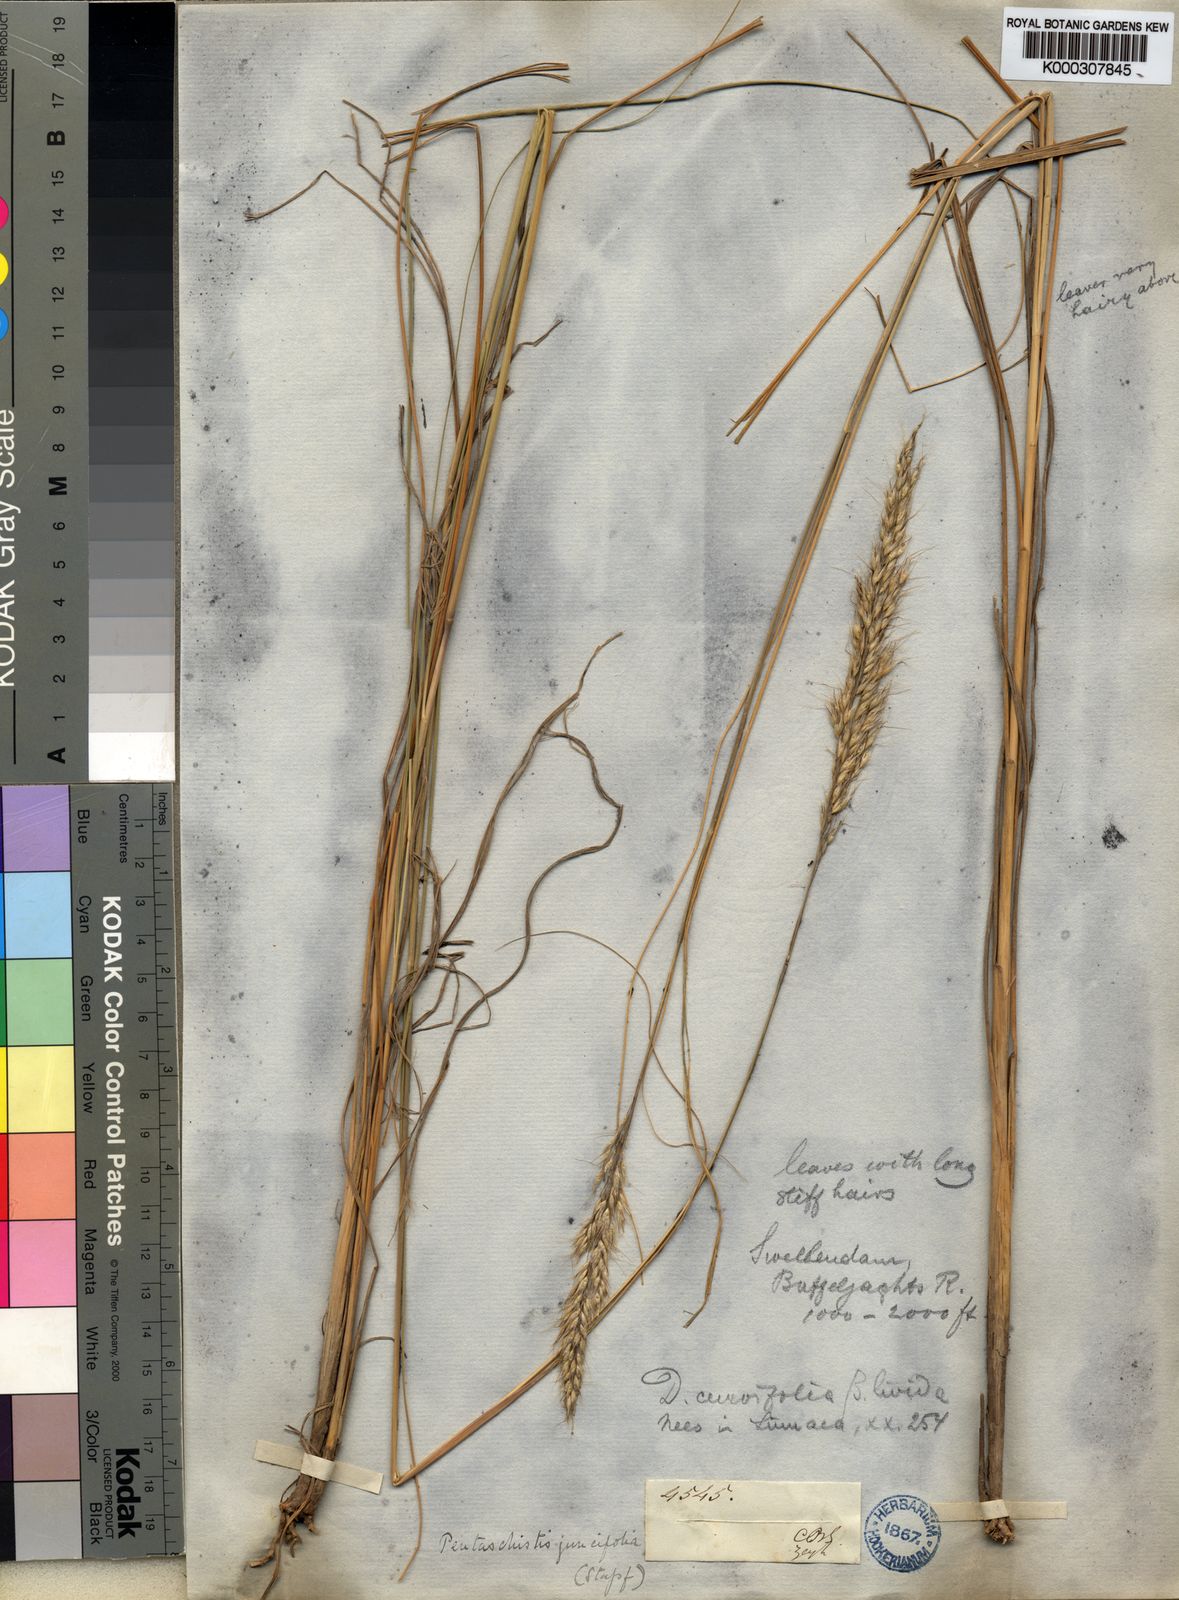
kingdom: Plantae
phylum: Tracheophyta
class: Liliopsida
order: Poales
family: Poaceae
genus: Pentameris
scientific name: Pentameris eriostoma
